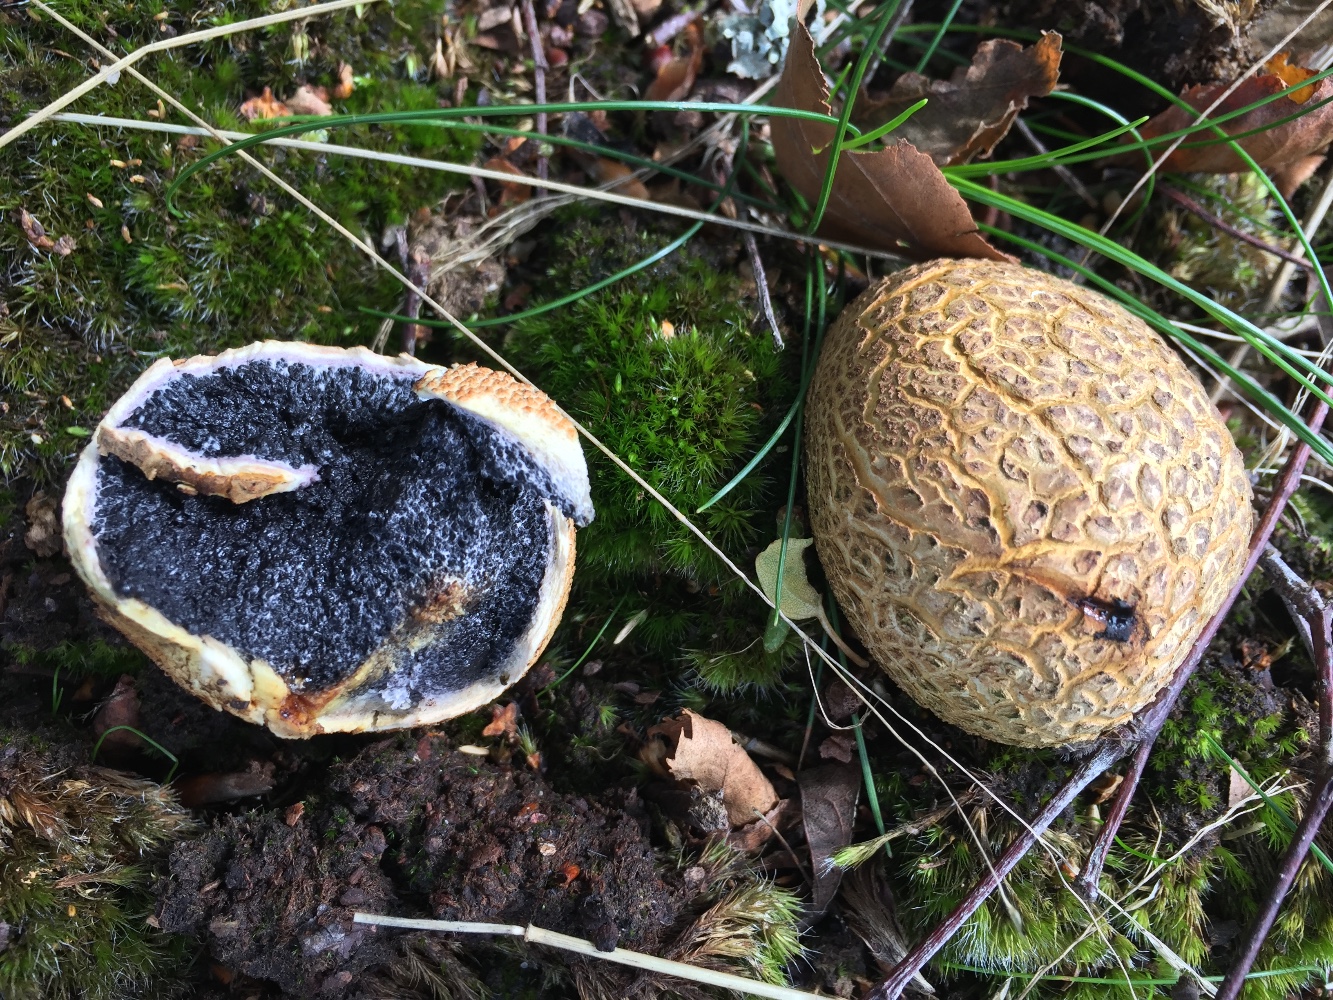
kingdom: Fungi
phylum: Basidiomycota
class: Agaricomycetes
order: Boletales
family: Sclerodermataceae
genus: Scleroderma
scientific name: Scleroderma citrinum
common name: almindelig bruskbold
